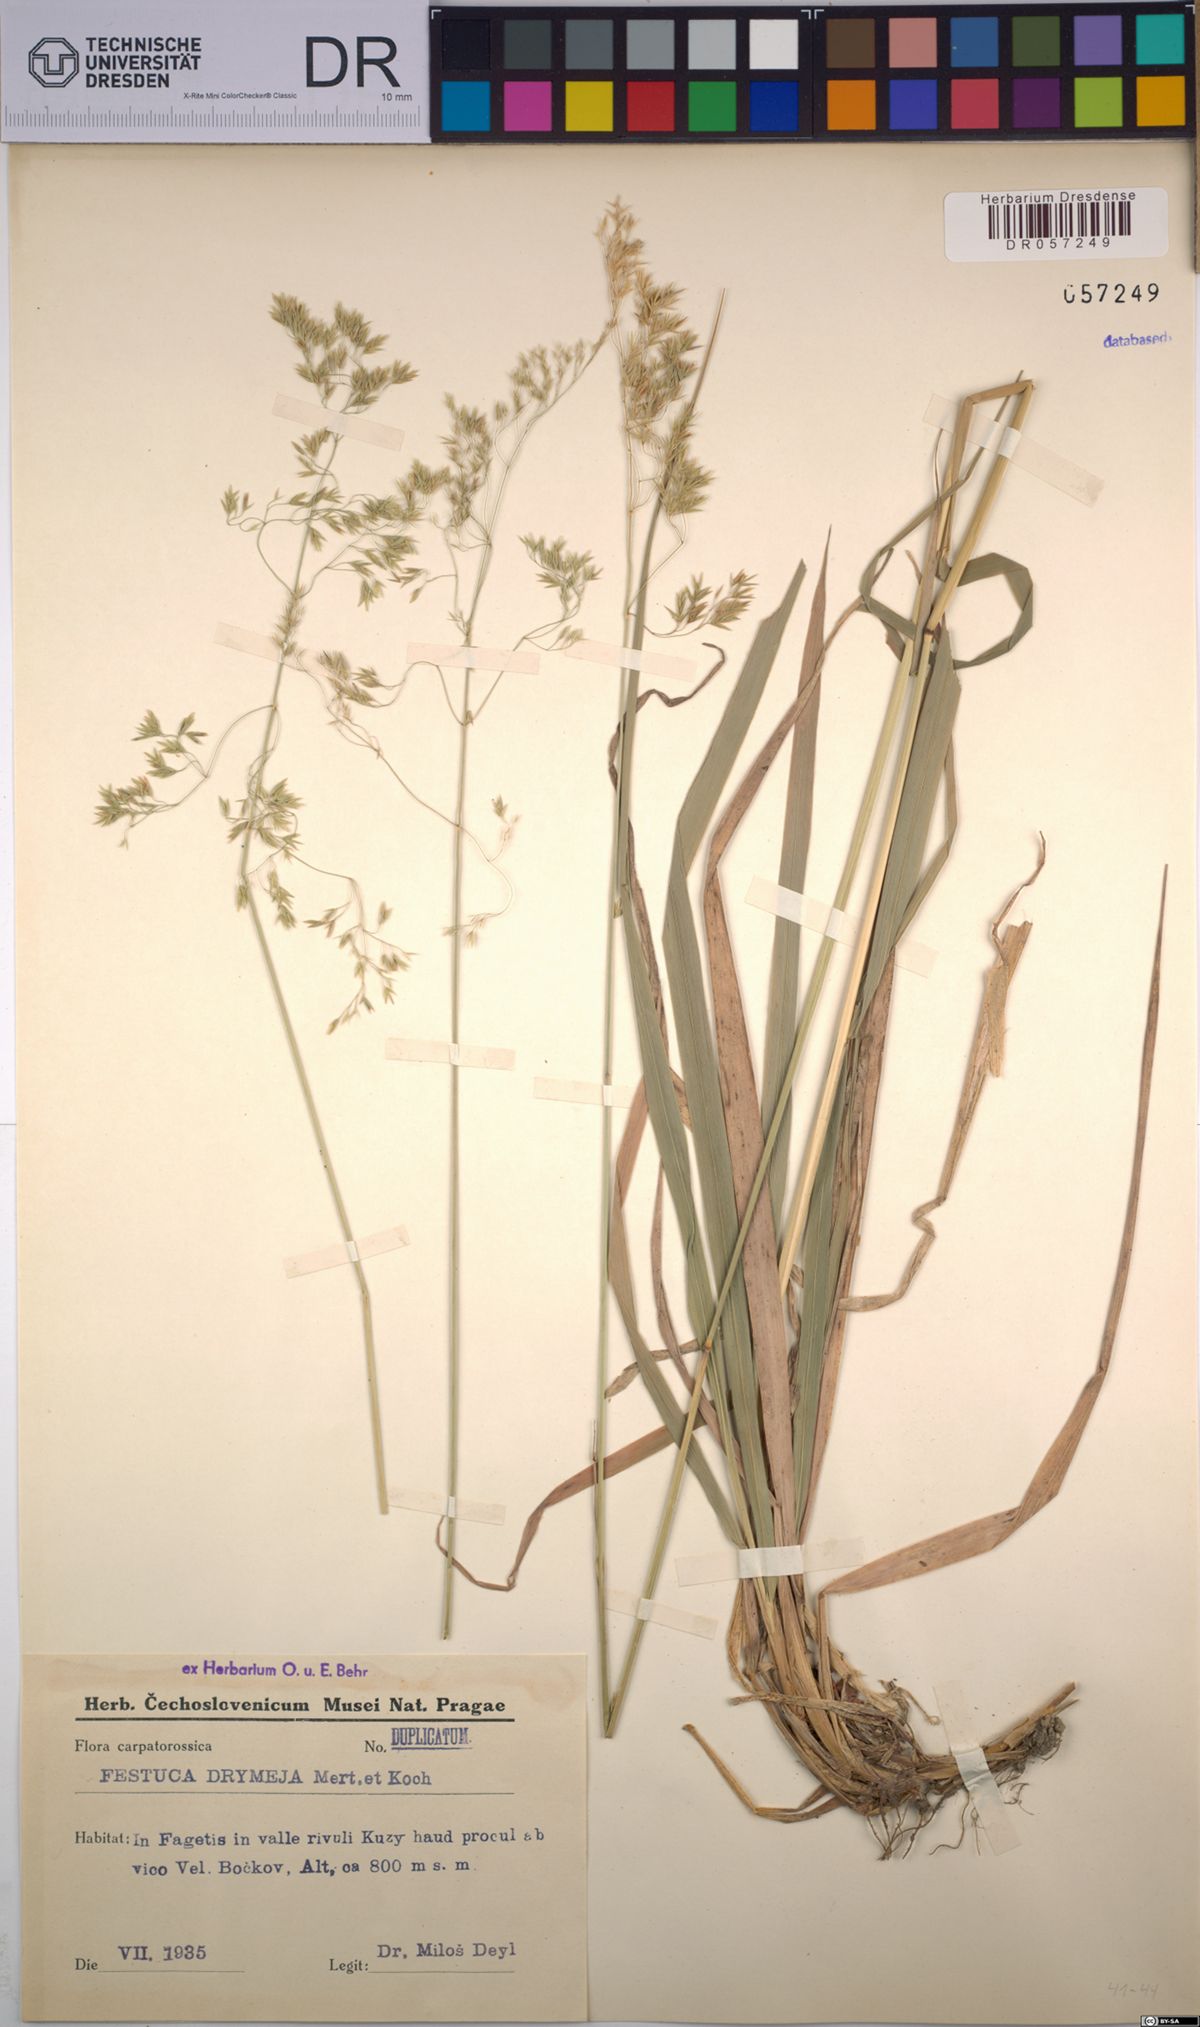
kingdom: Plantae
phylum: Tracheophyta
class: Liliopsida
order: Poales
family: Poaceae
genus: Festuca
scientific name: Festuca drymeja
